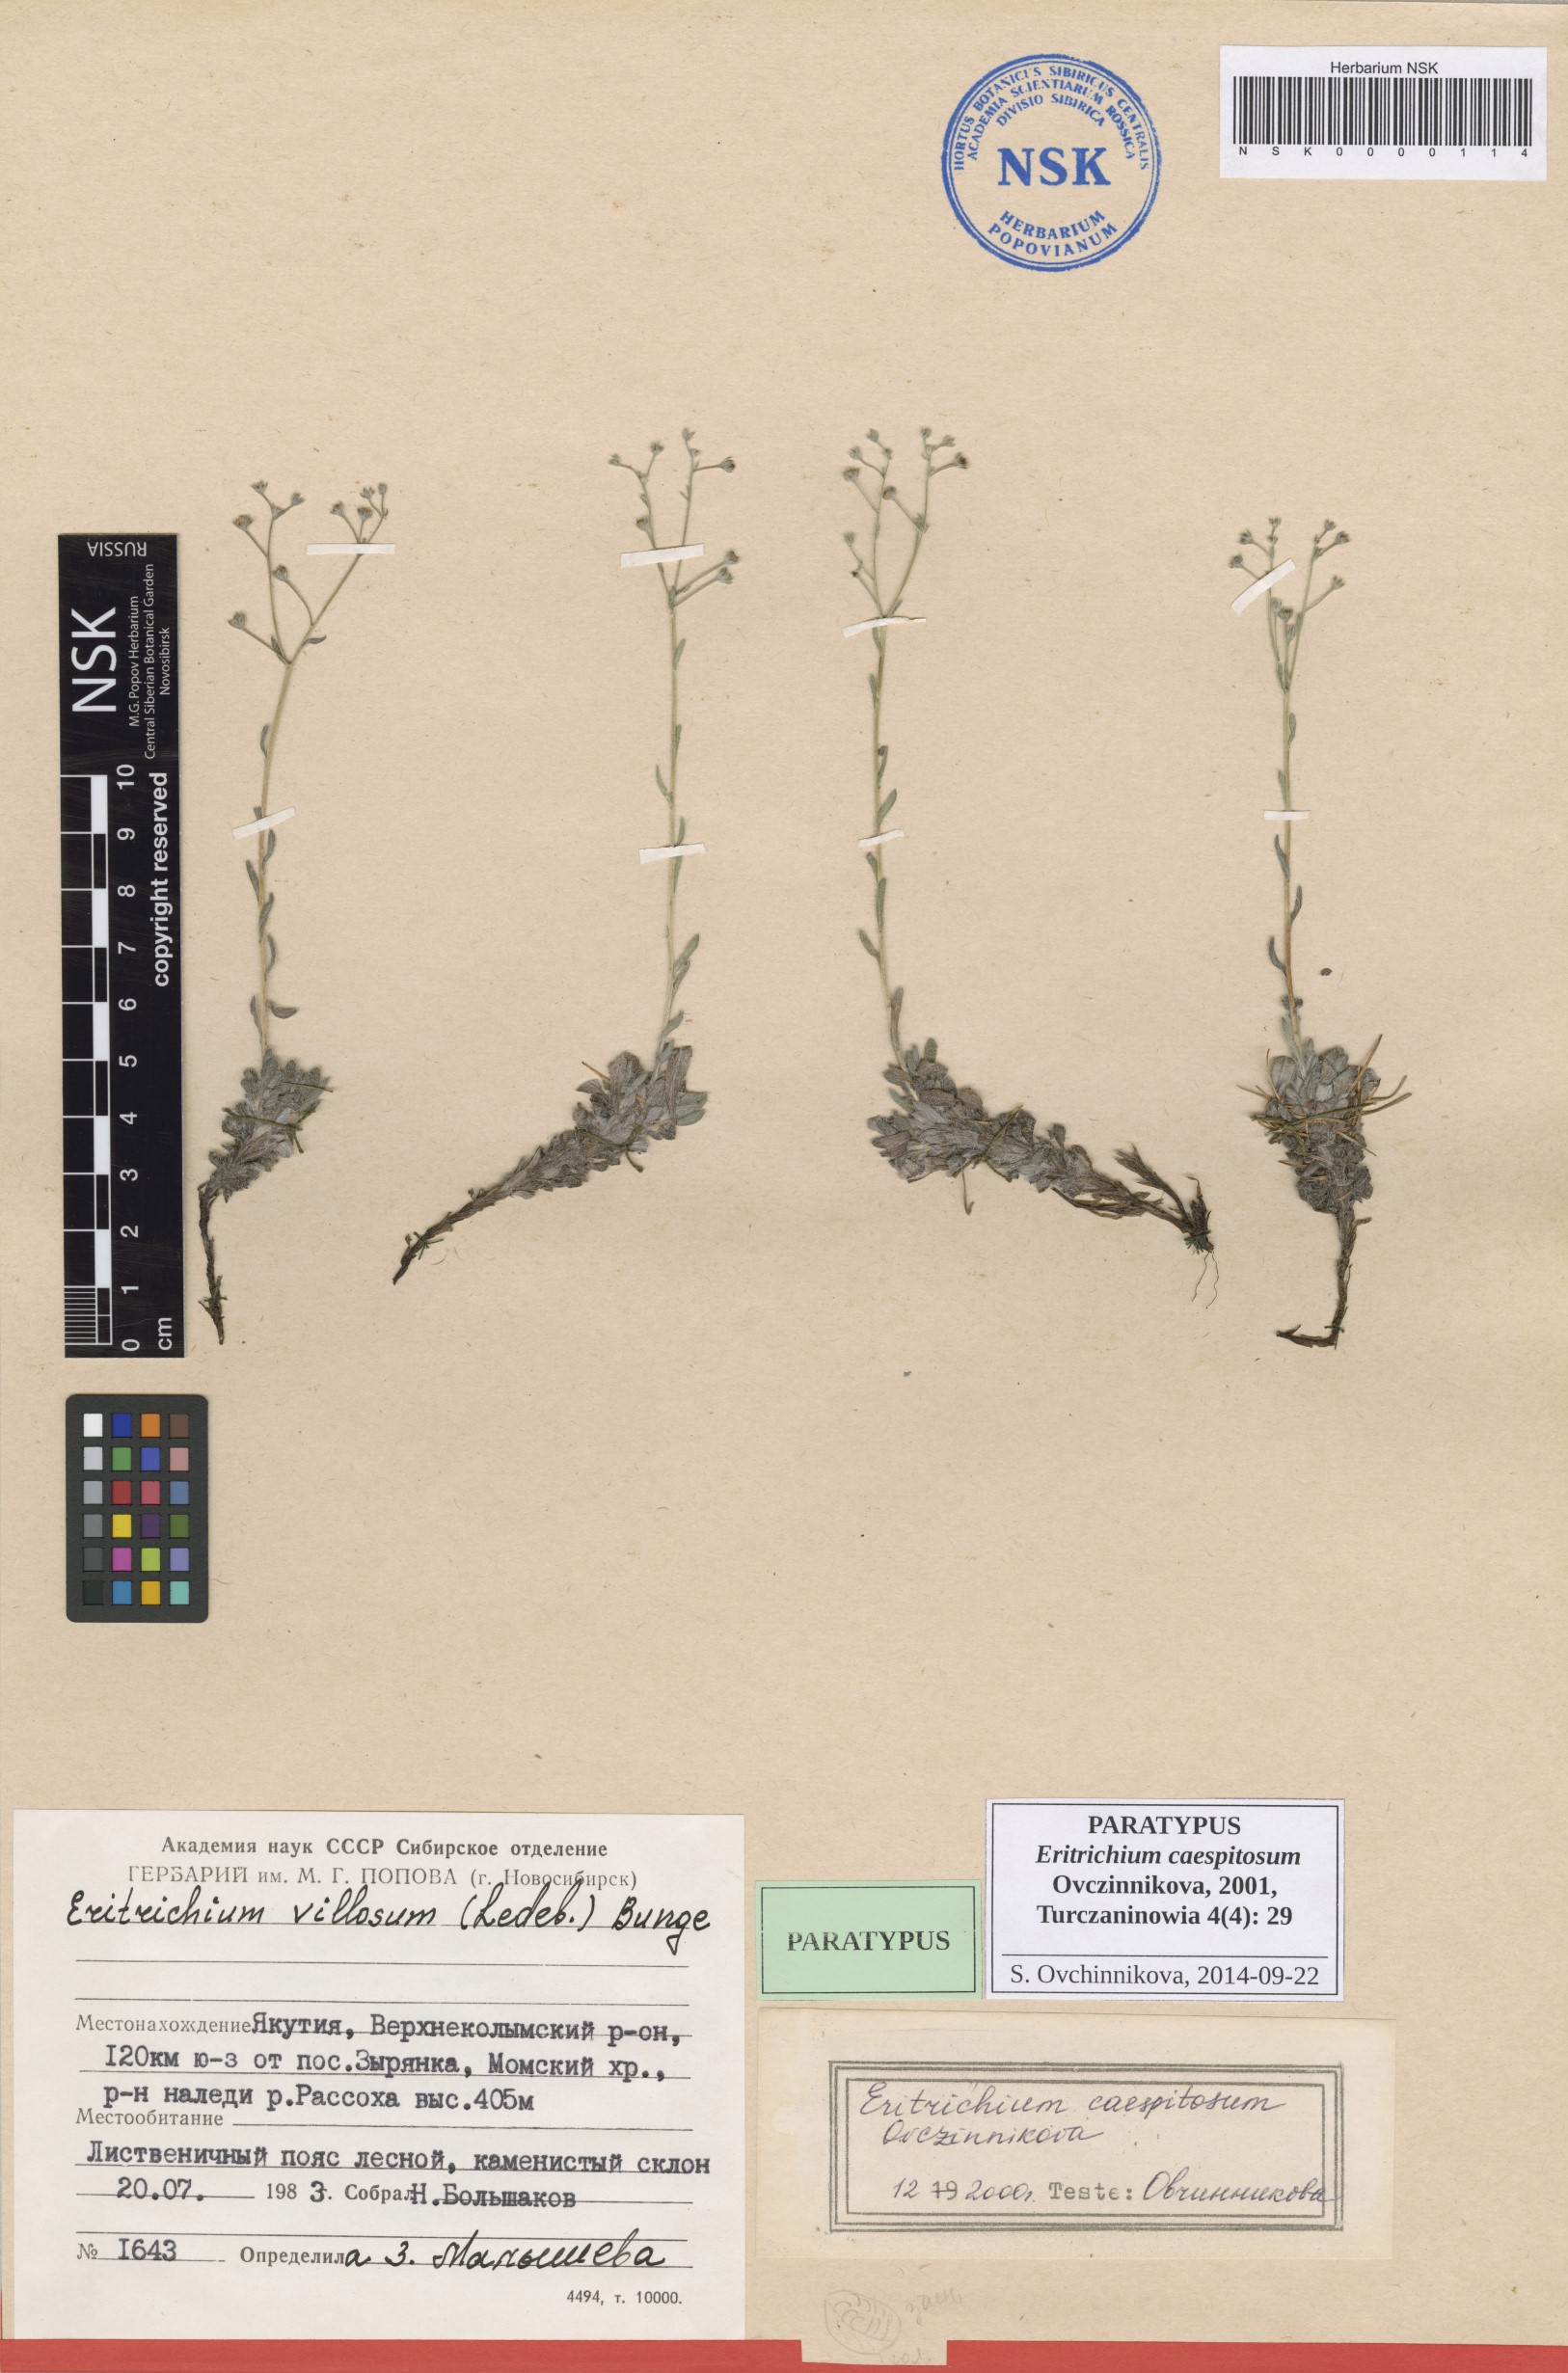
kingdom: Plantae
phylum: Tracheophyta
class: Magnoliopsida
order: Boraginales
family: Boraginaceae
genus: Eritrichium
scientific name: Eritrichium caespitosum
